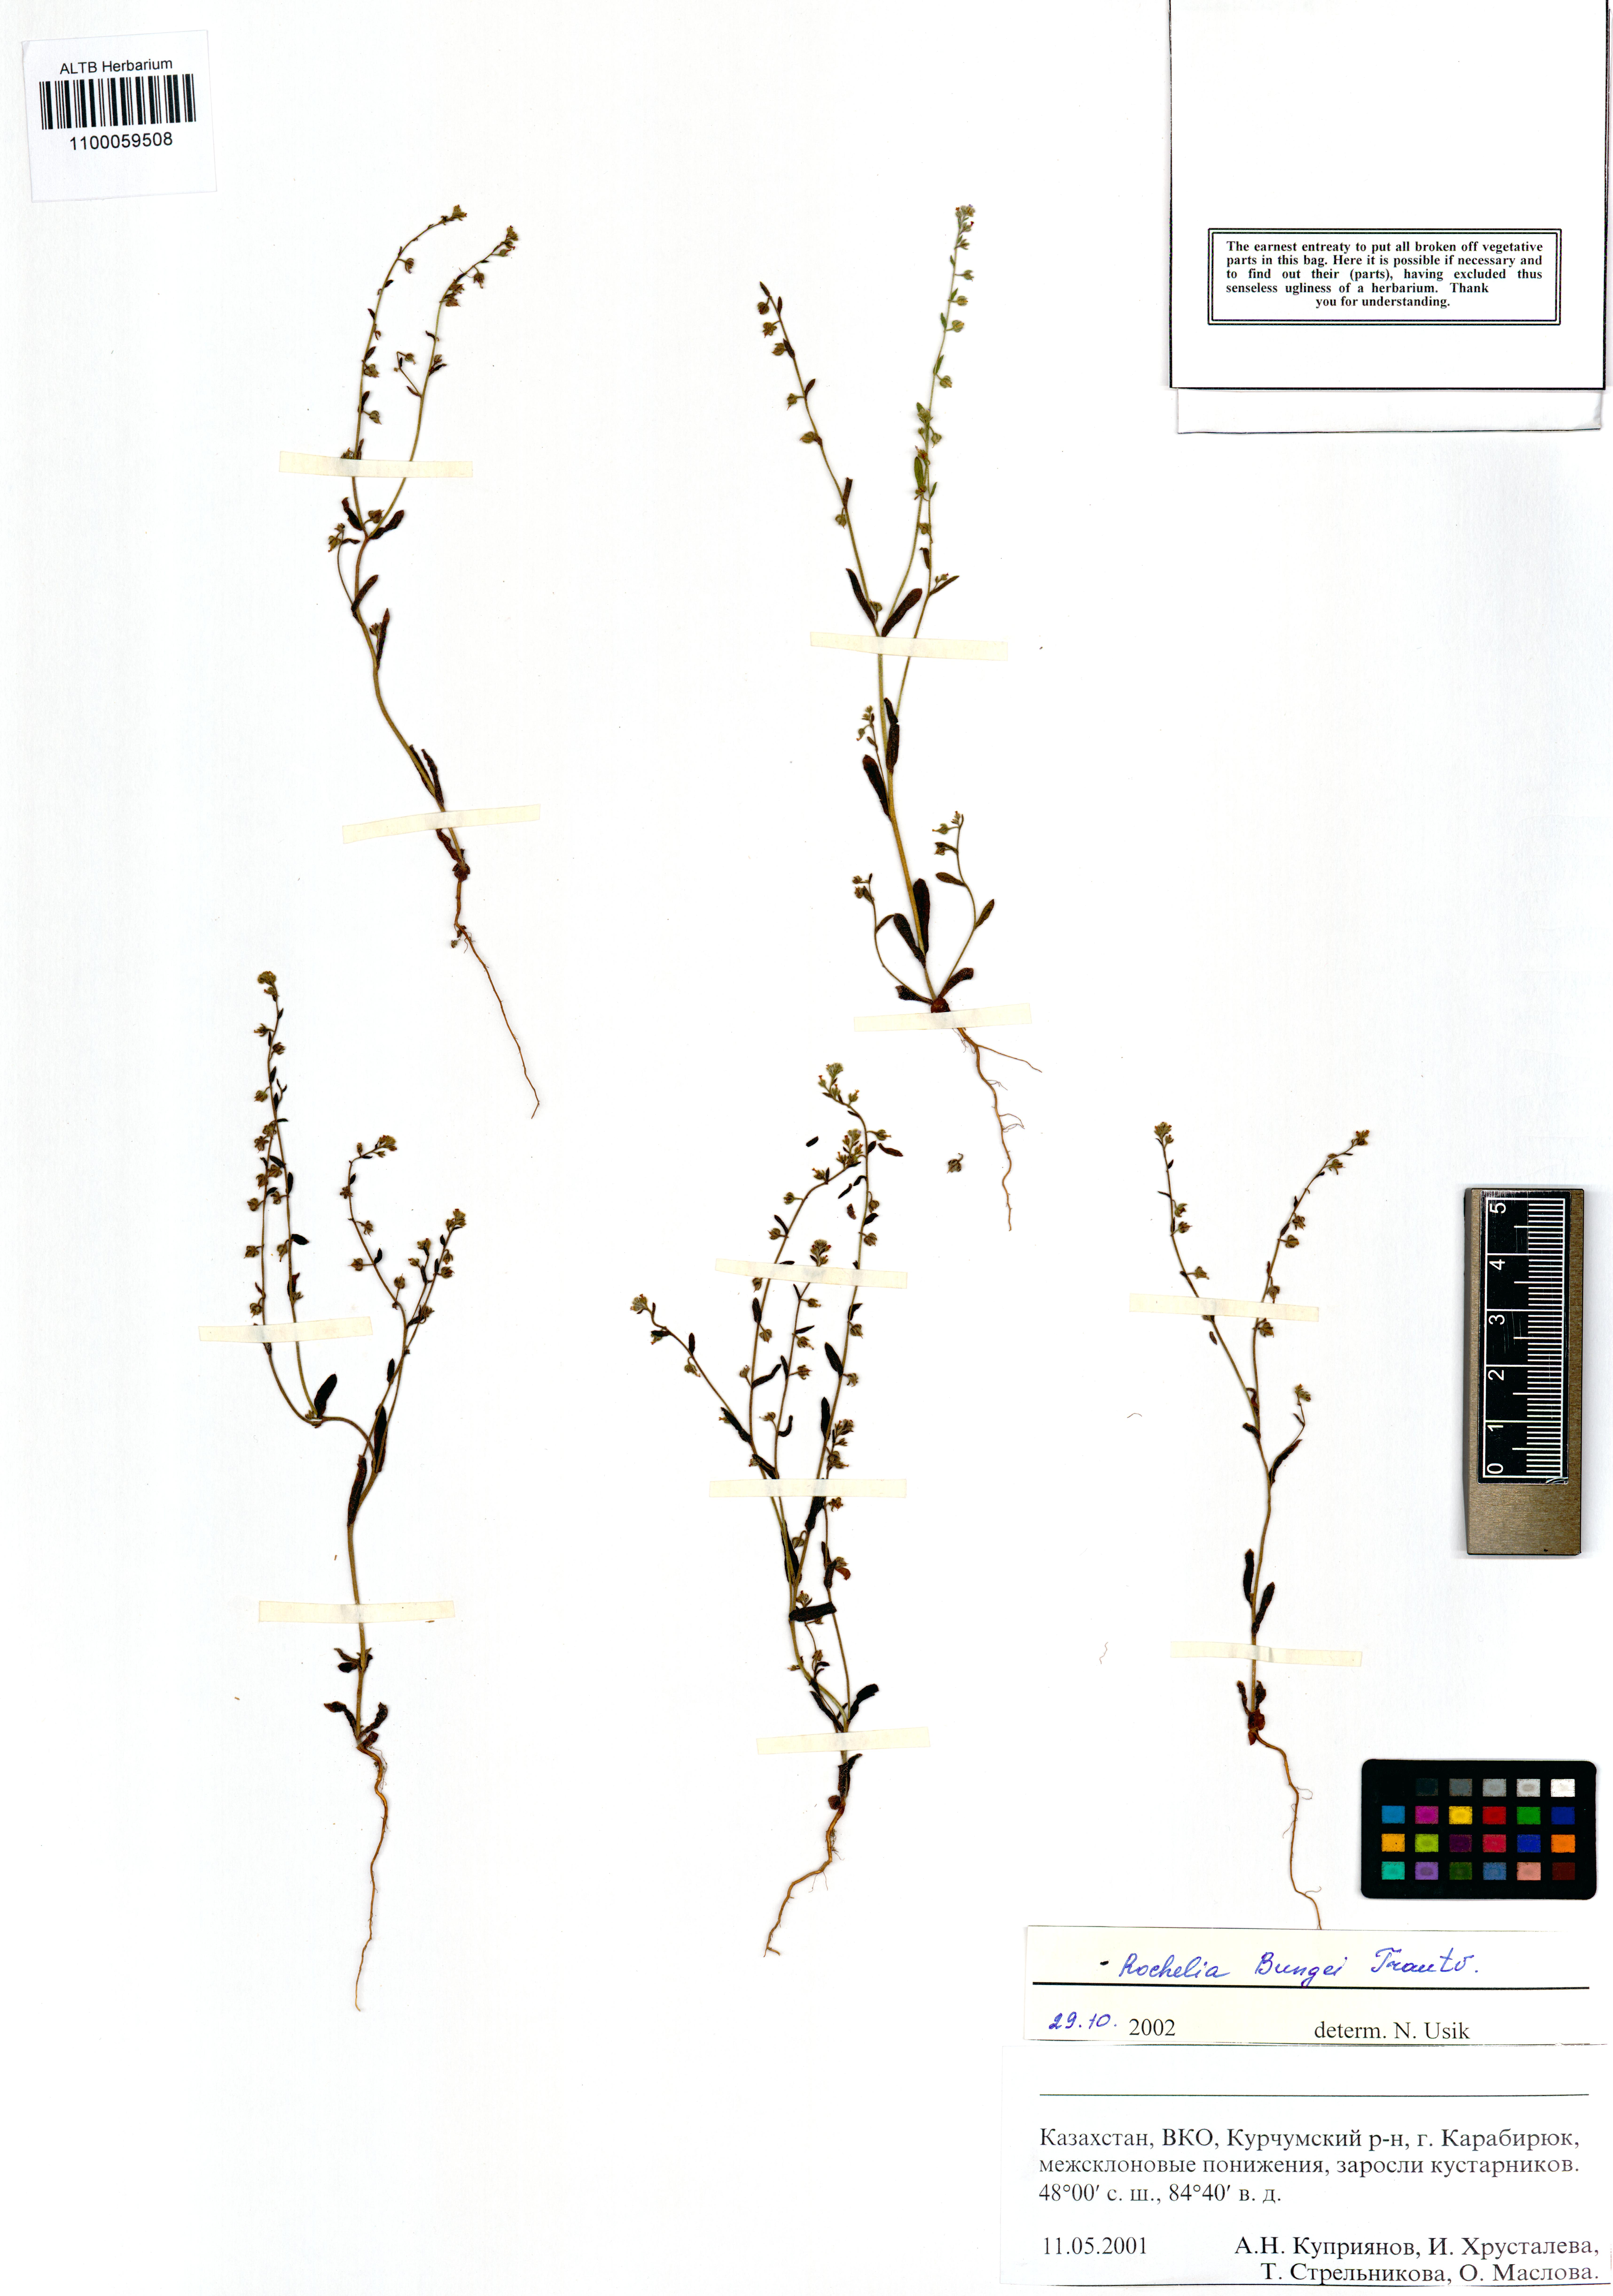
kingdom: Plantae
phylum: Tracheophyta
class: Magnoliopsida
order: Boraginales
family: Boraginaceae
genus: Rochelia
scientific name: Rochelia bungei
